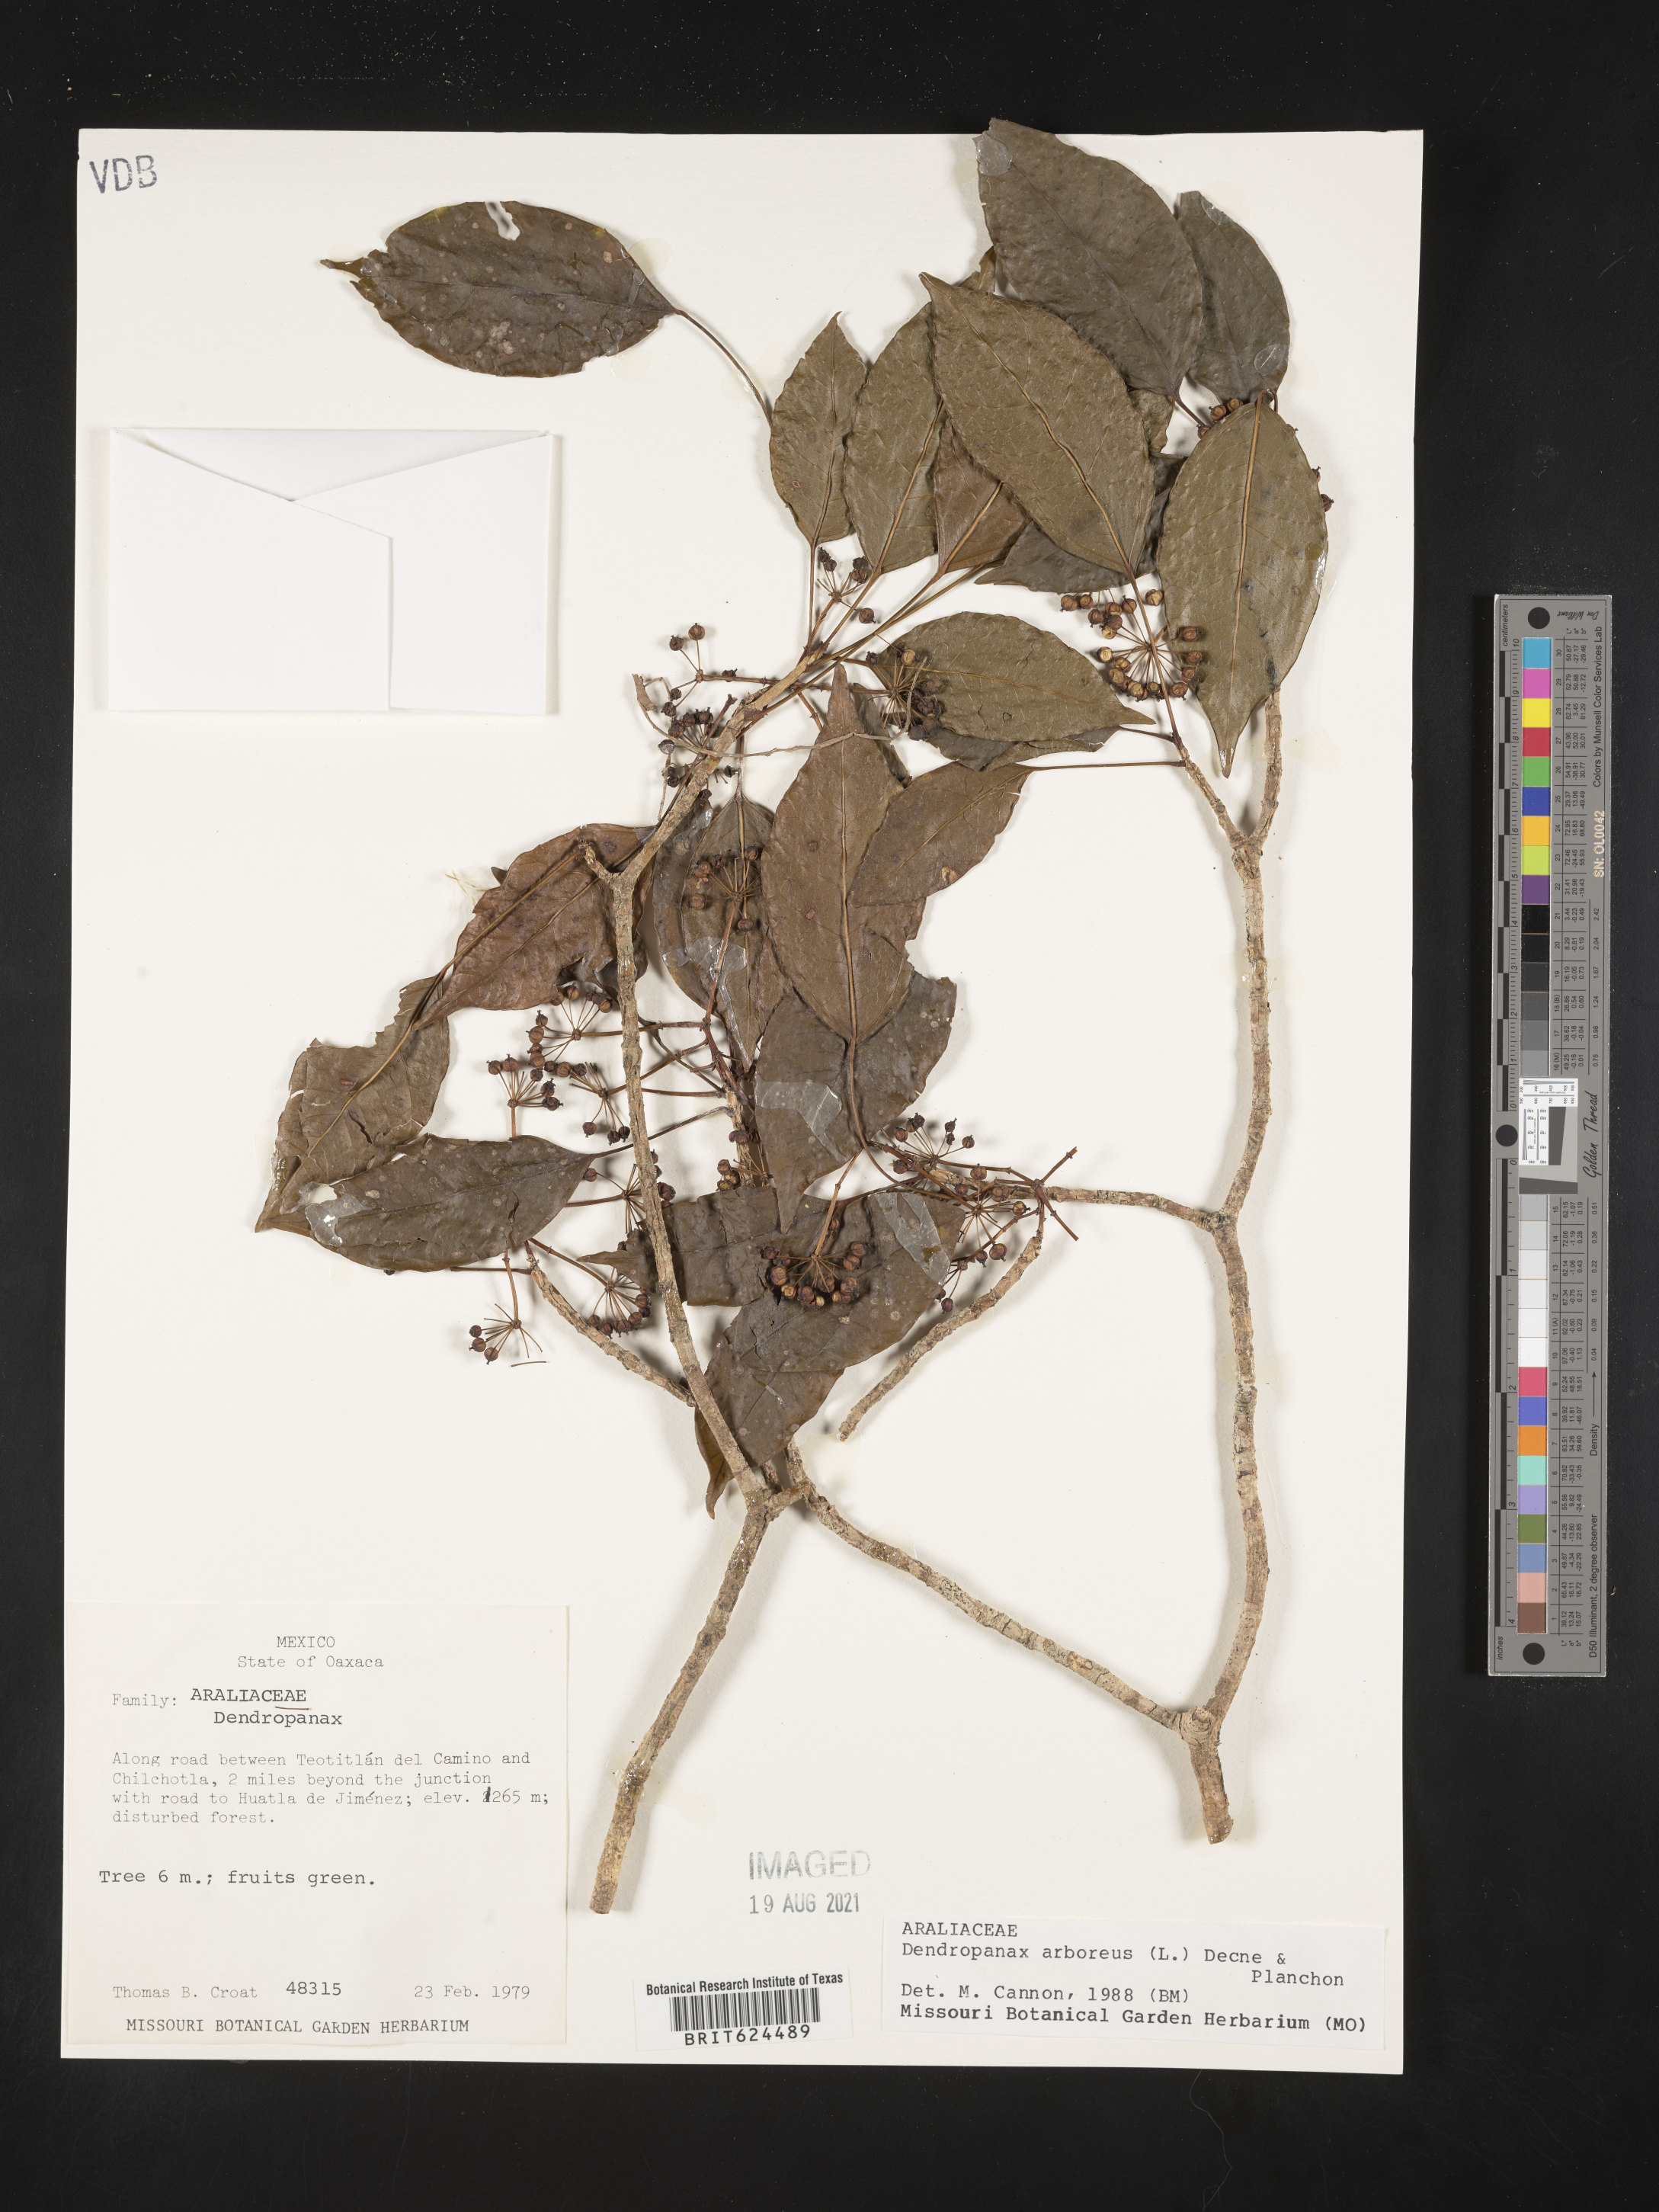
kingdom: Plantae
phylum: Tracheophyta
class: Magnoliopsida
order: Apiales
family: Araliaceae
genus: Dendropanax
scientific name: Dendropanax arboreus
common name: Potato-wood
